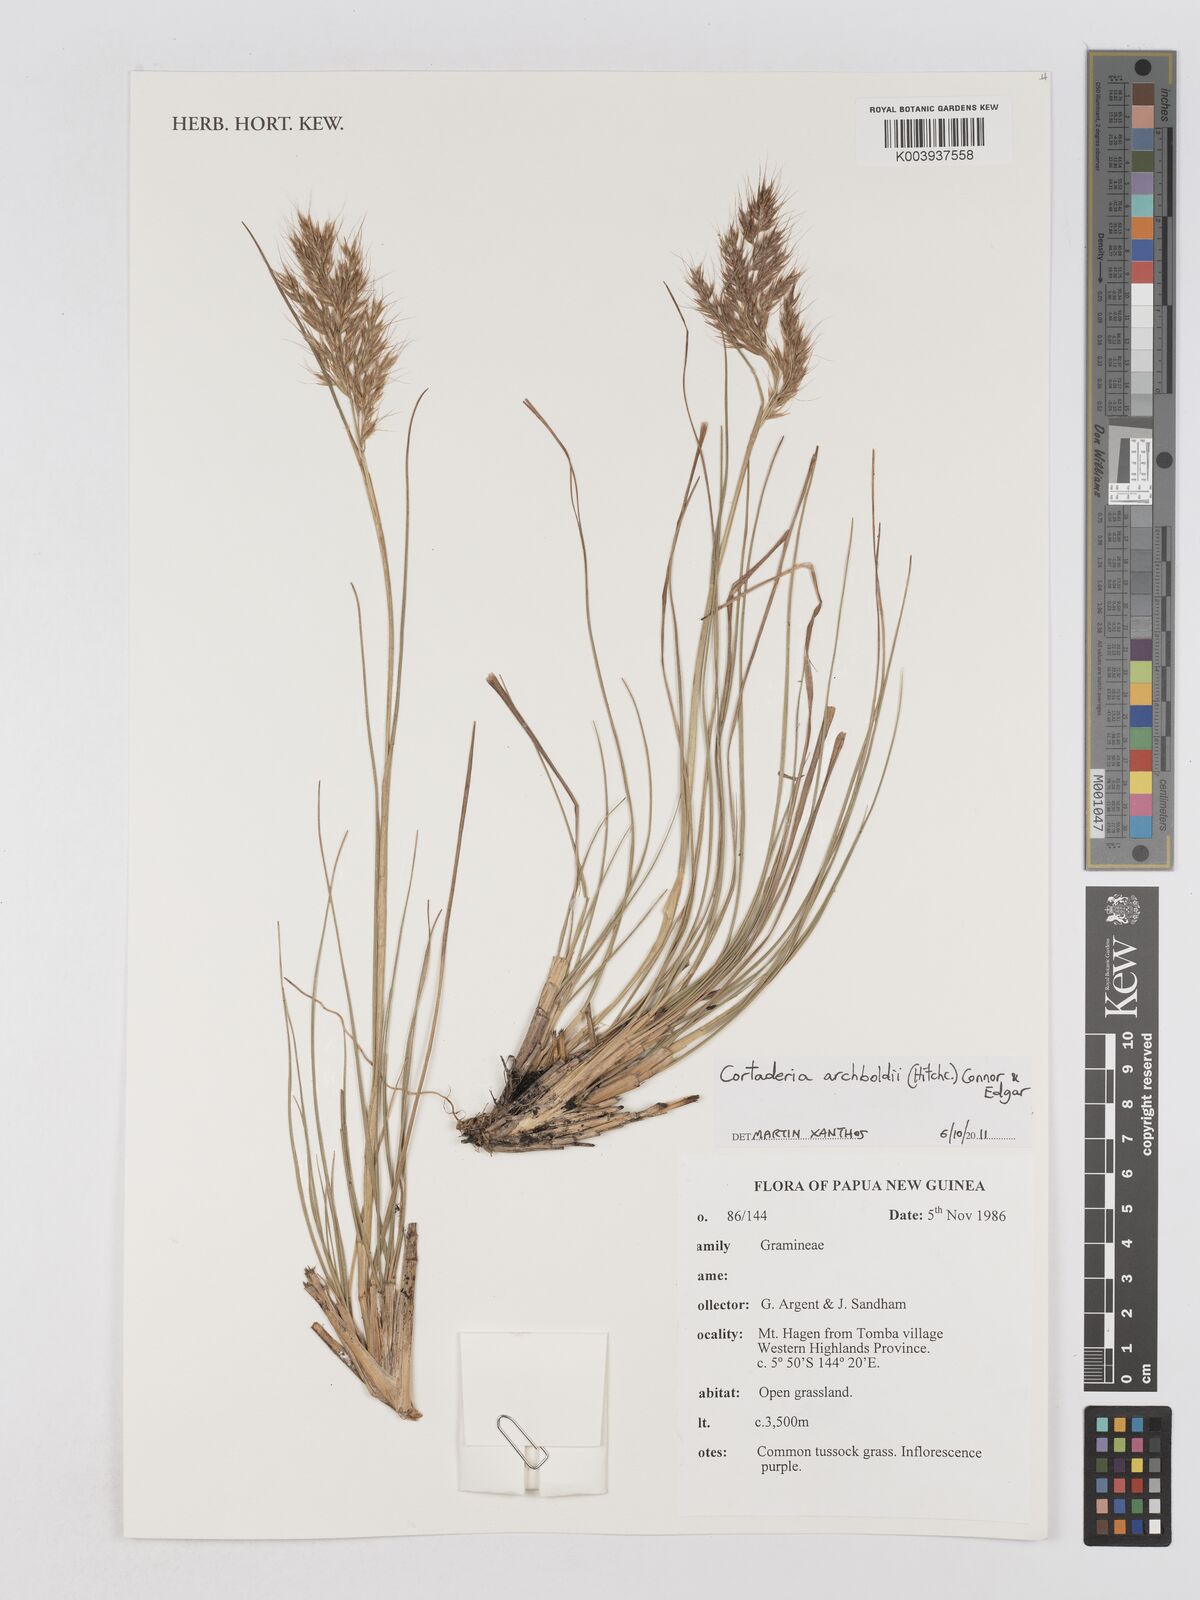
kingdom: Plantae
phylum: Tracheophyta
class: Liliopsida
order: Poales
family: Poaceae
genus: Chimaerochloa
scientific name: Chimaerochloa archboldii
